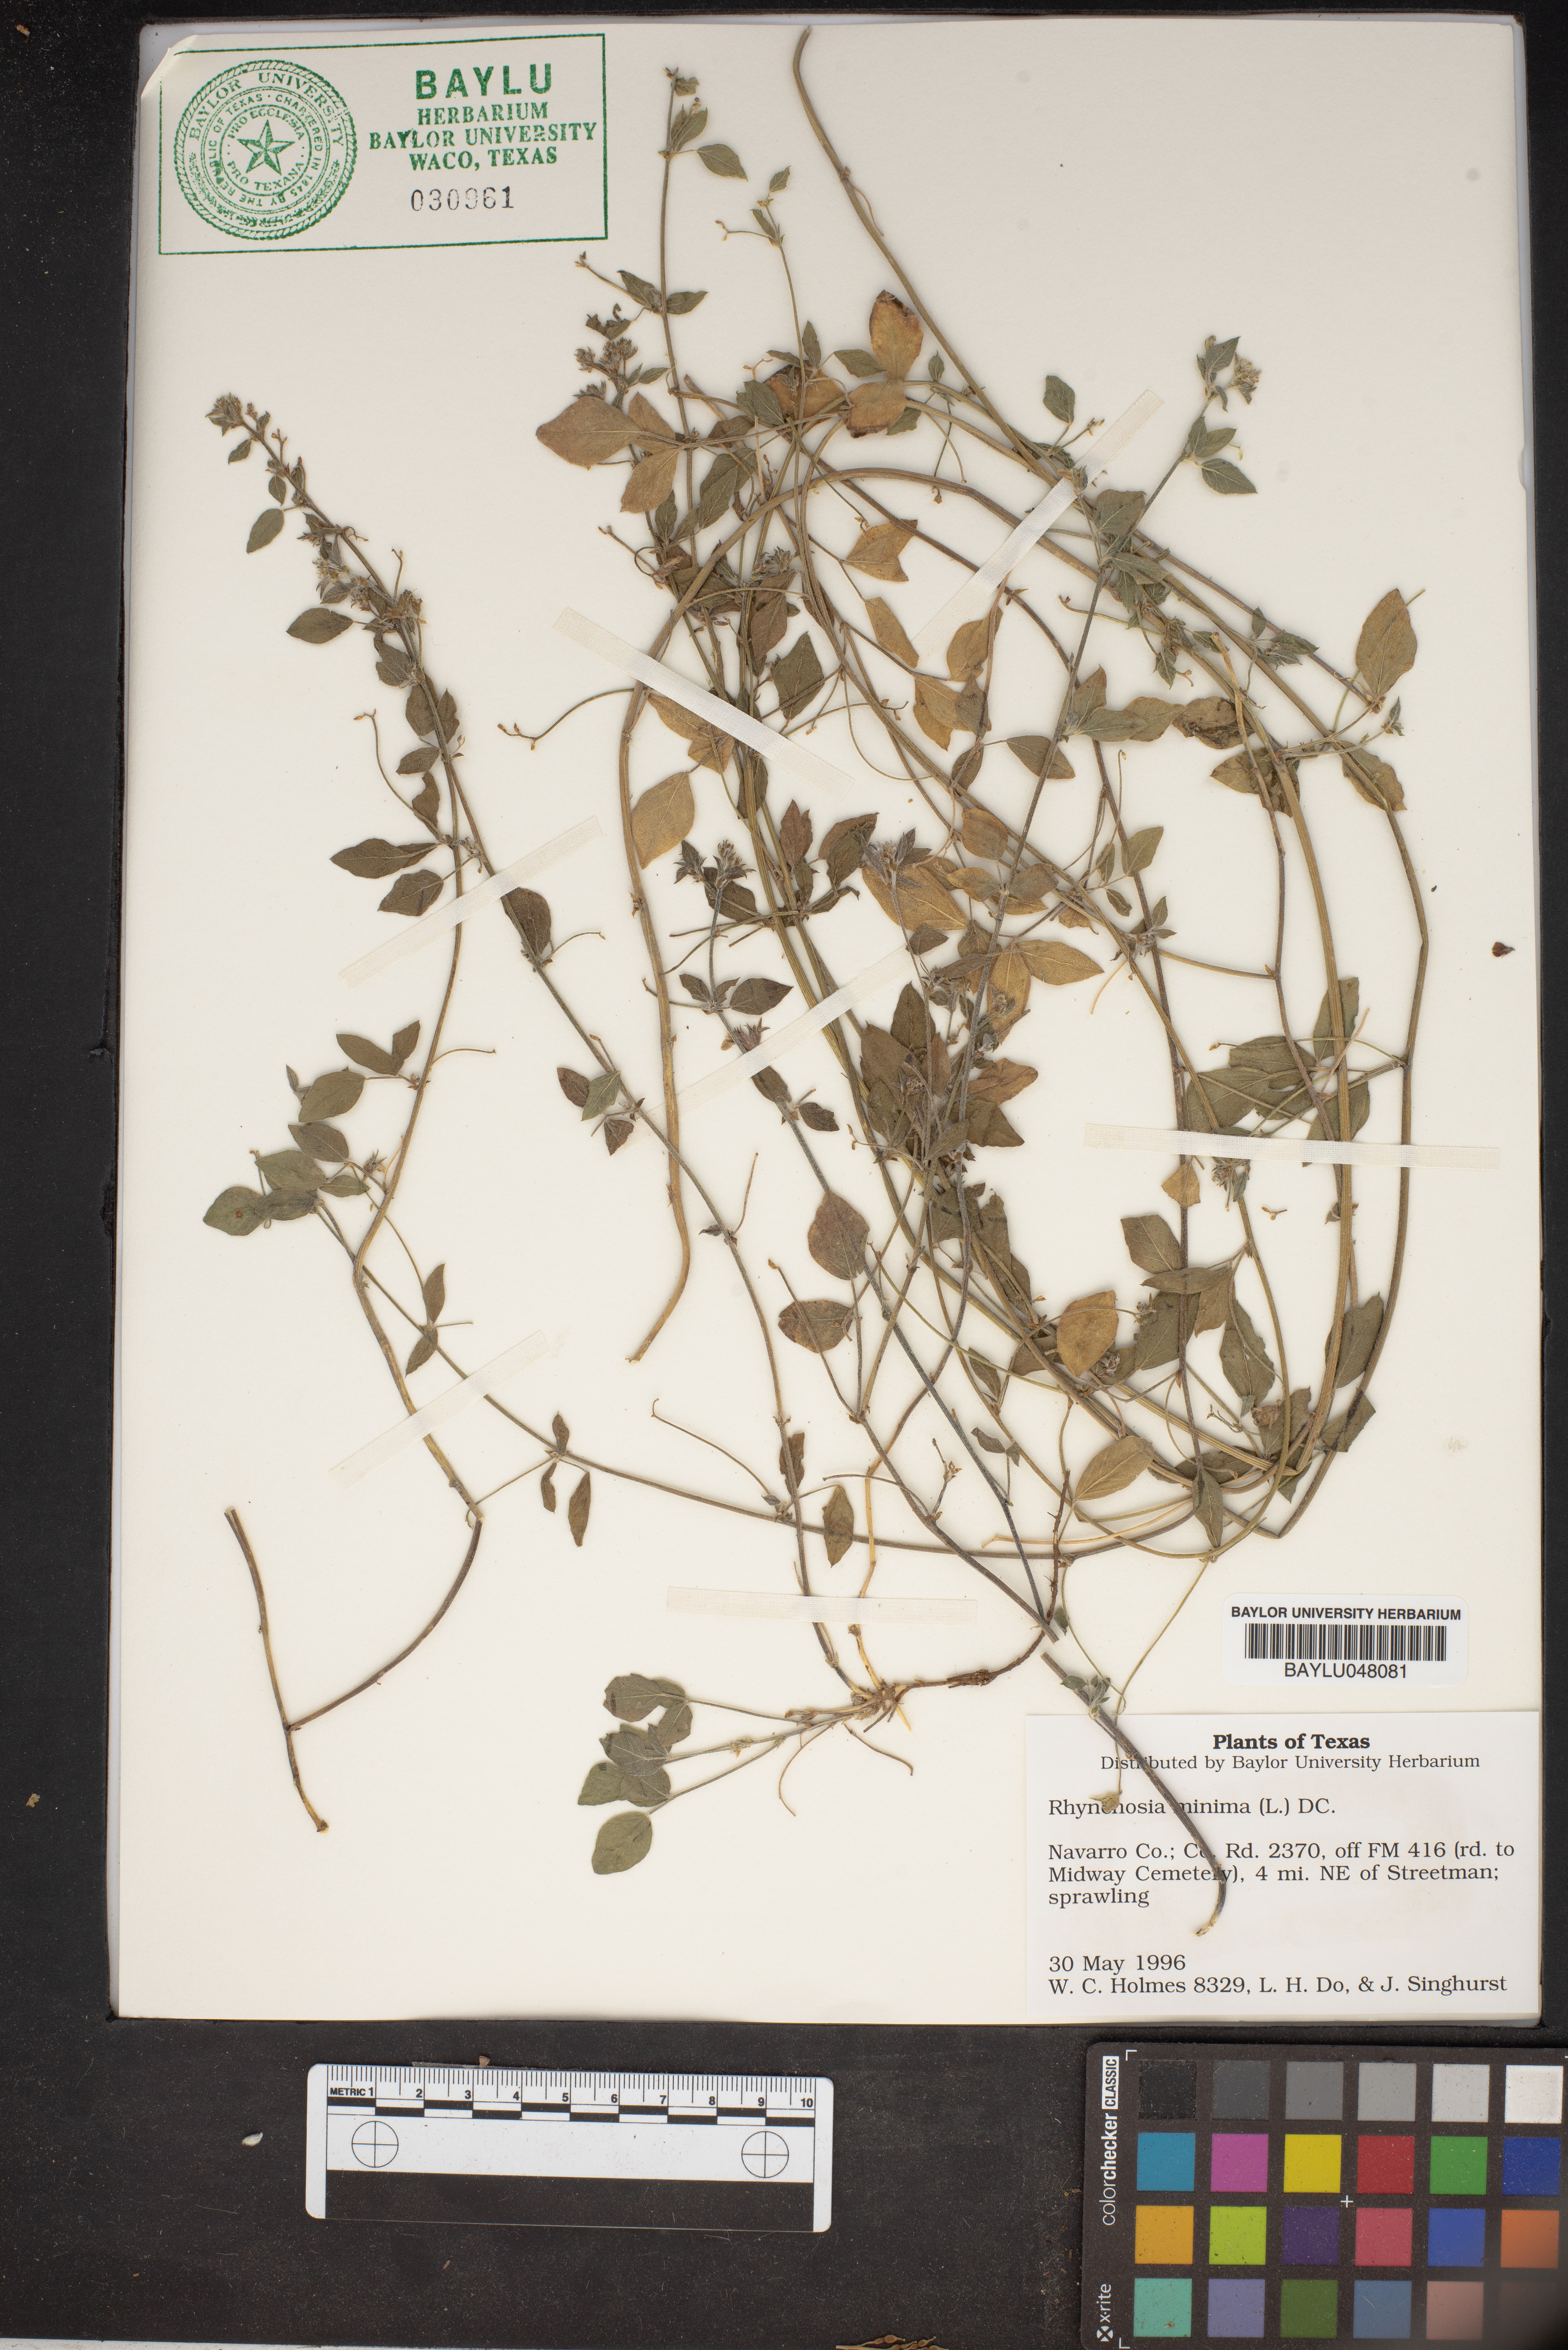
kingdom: Plantae
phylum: Tracheophyta
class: Magnoliopsida
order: Fabales
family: Fabaceae
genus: Rhynchosia
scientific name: Rhynchosia minima
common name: Least snoutbean
